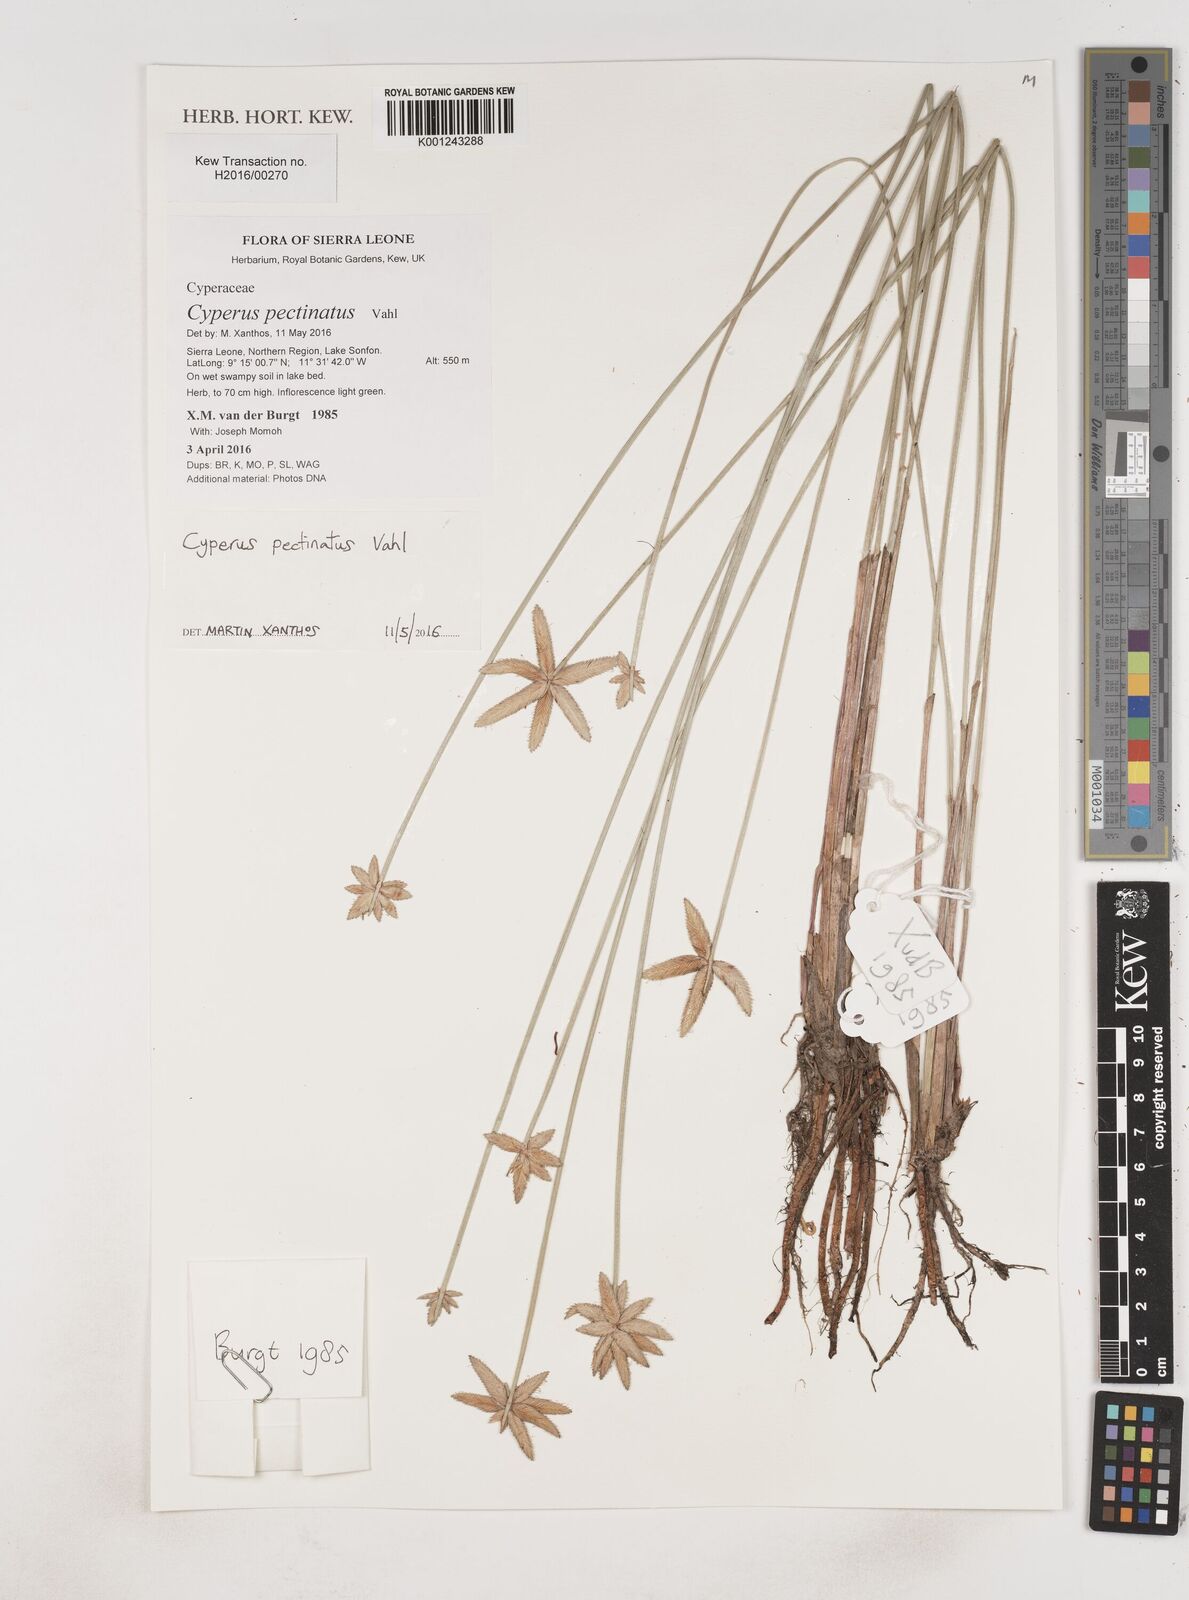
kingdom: Plantae
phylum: Tracheophyta
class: Liliopsida
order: Poales
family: Cyperaceae
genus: Cyperus
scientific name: Cyperus pectinatus
